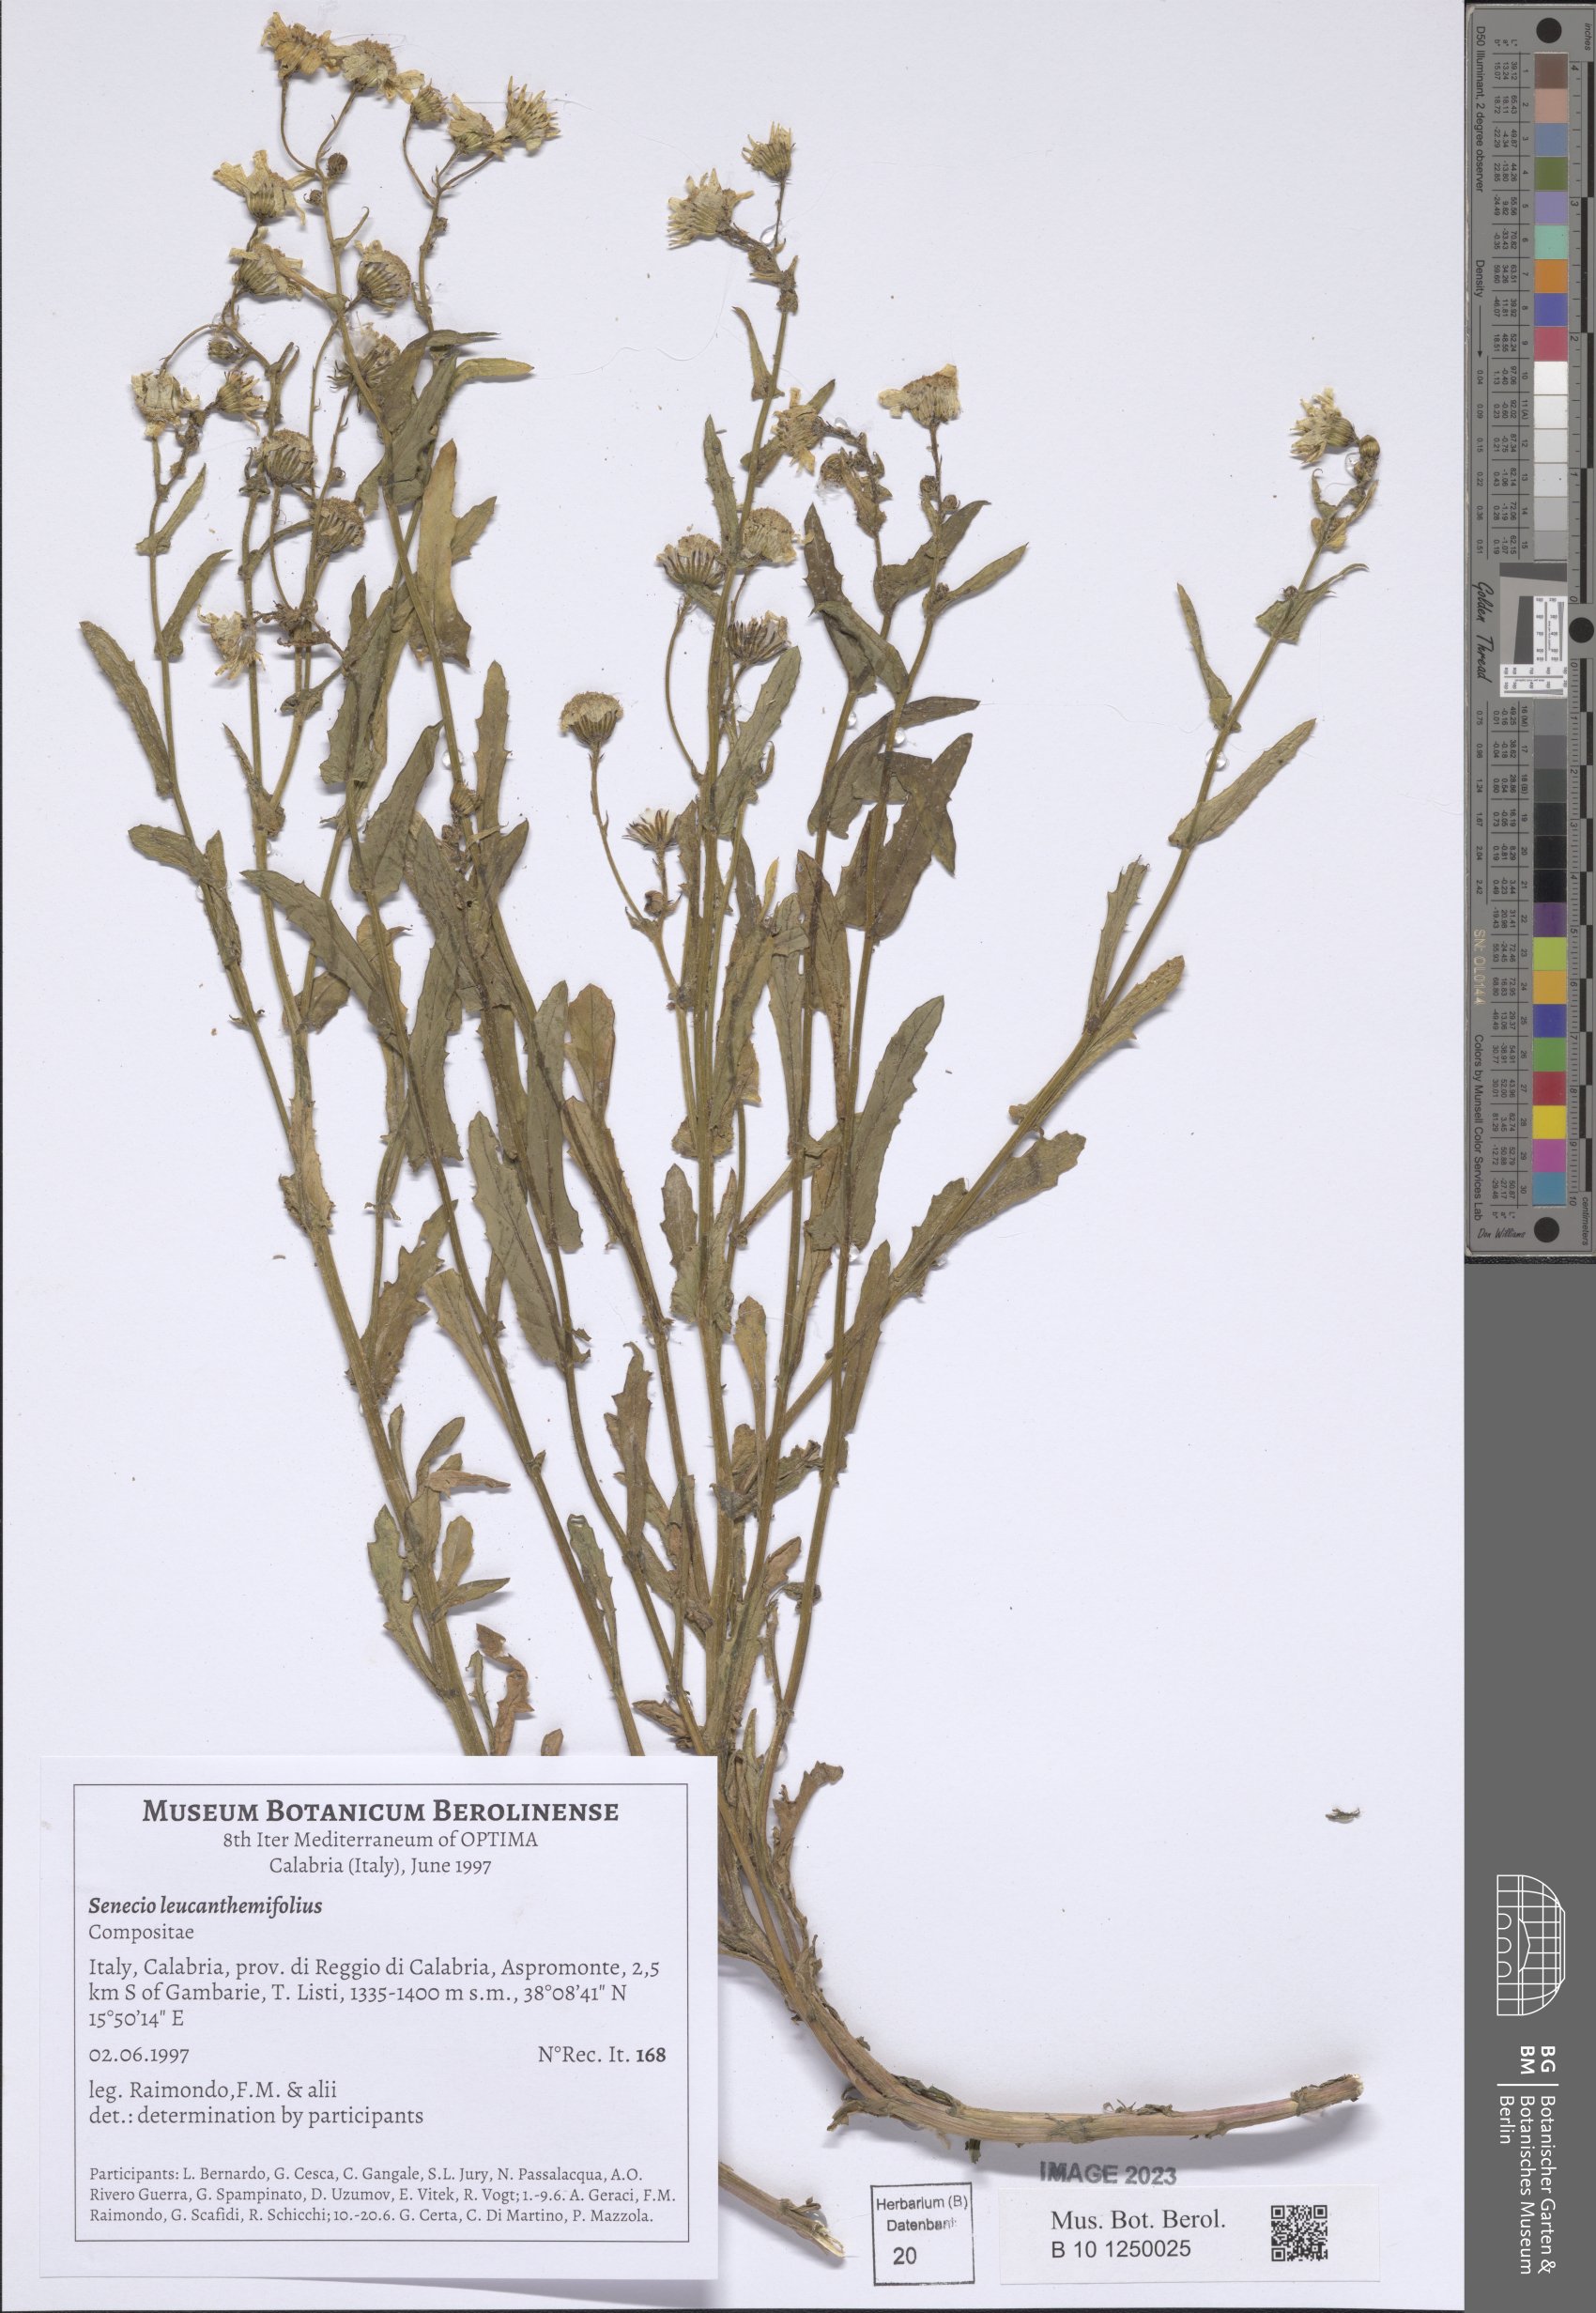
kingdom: Plantae
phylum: Tracheophyta
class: Magnoliopsida
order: Asterales
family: Asteraceae
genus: Senecio
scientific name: Senecio leucanthemifolius
